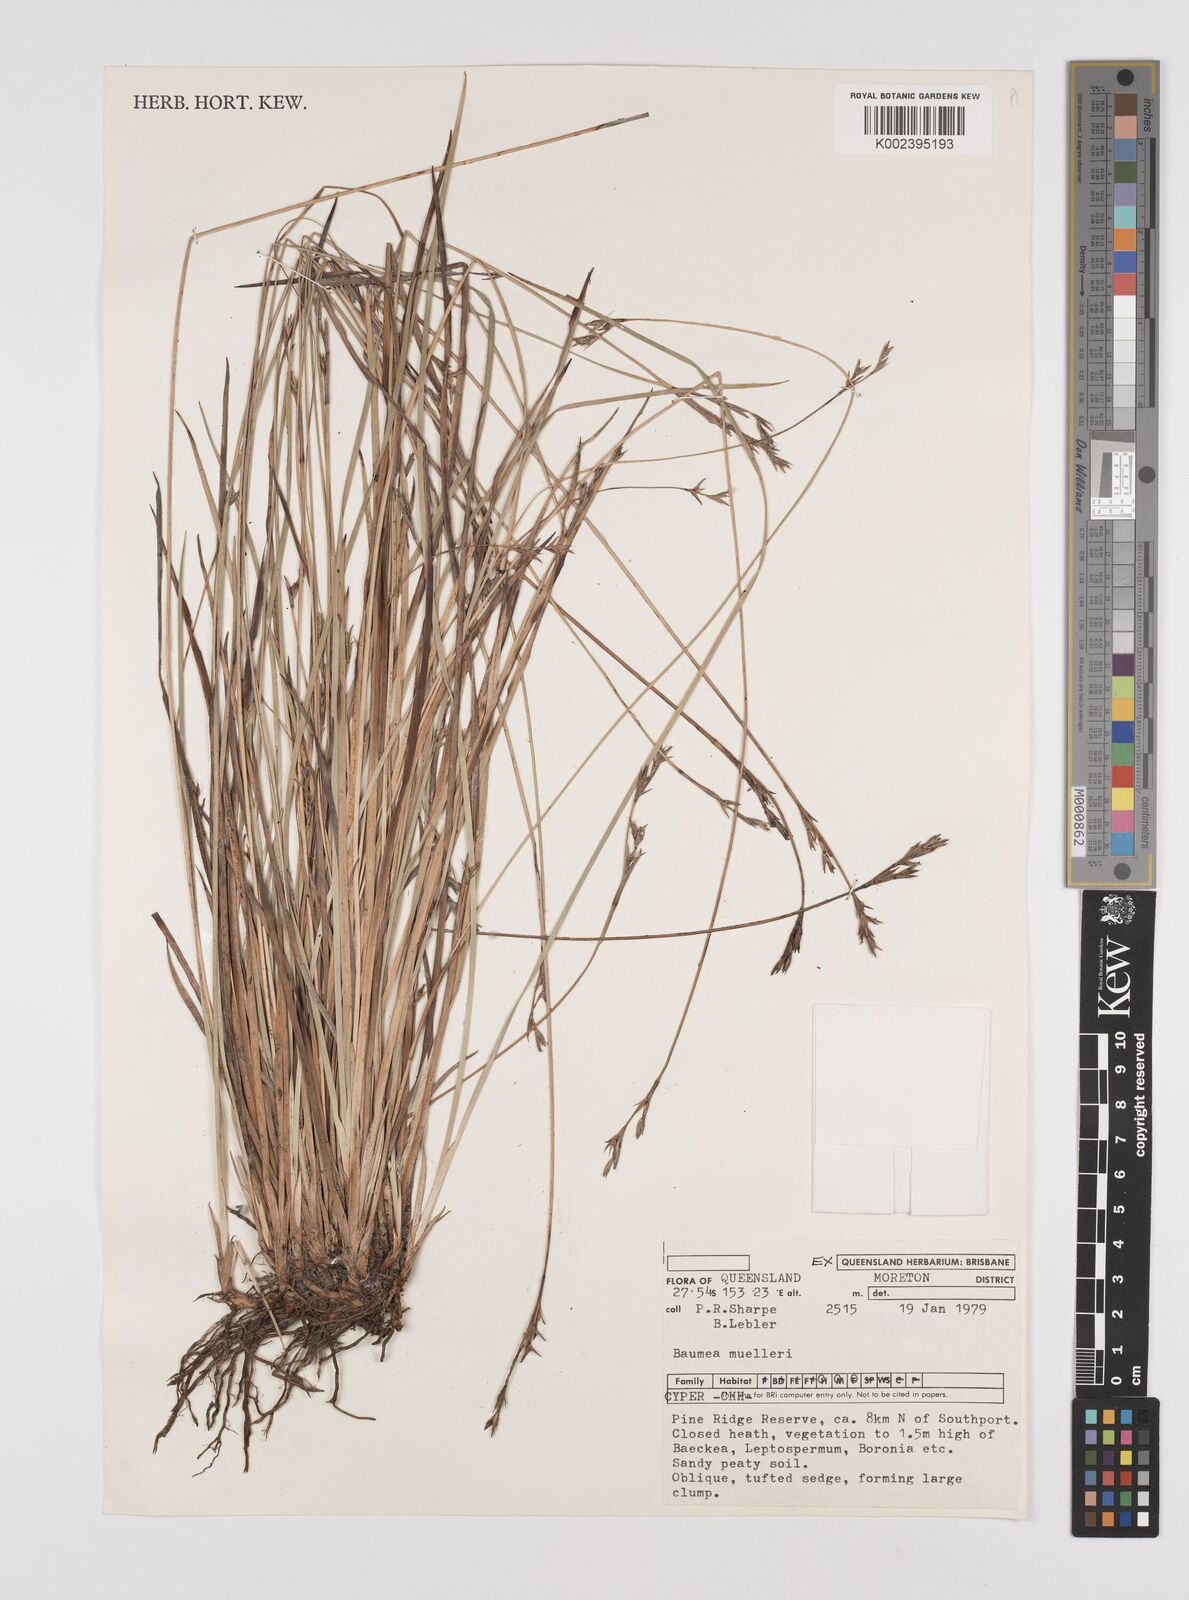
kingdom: Plantae
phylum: Tracheophyta
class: Liliopsida
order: Poales
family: Cyperaceae
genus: Machaerina
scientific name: Machaerina muelleri
